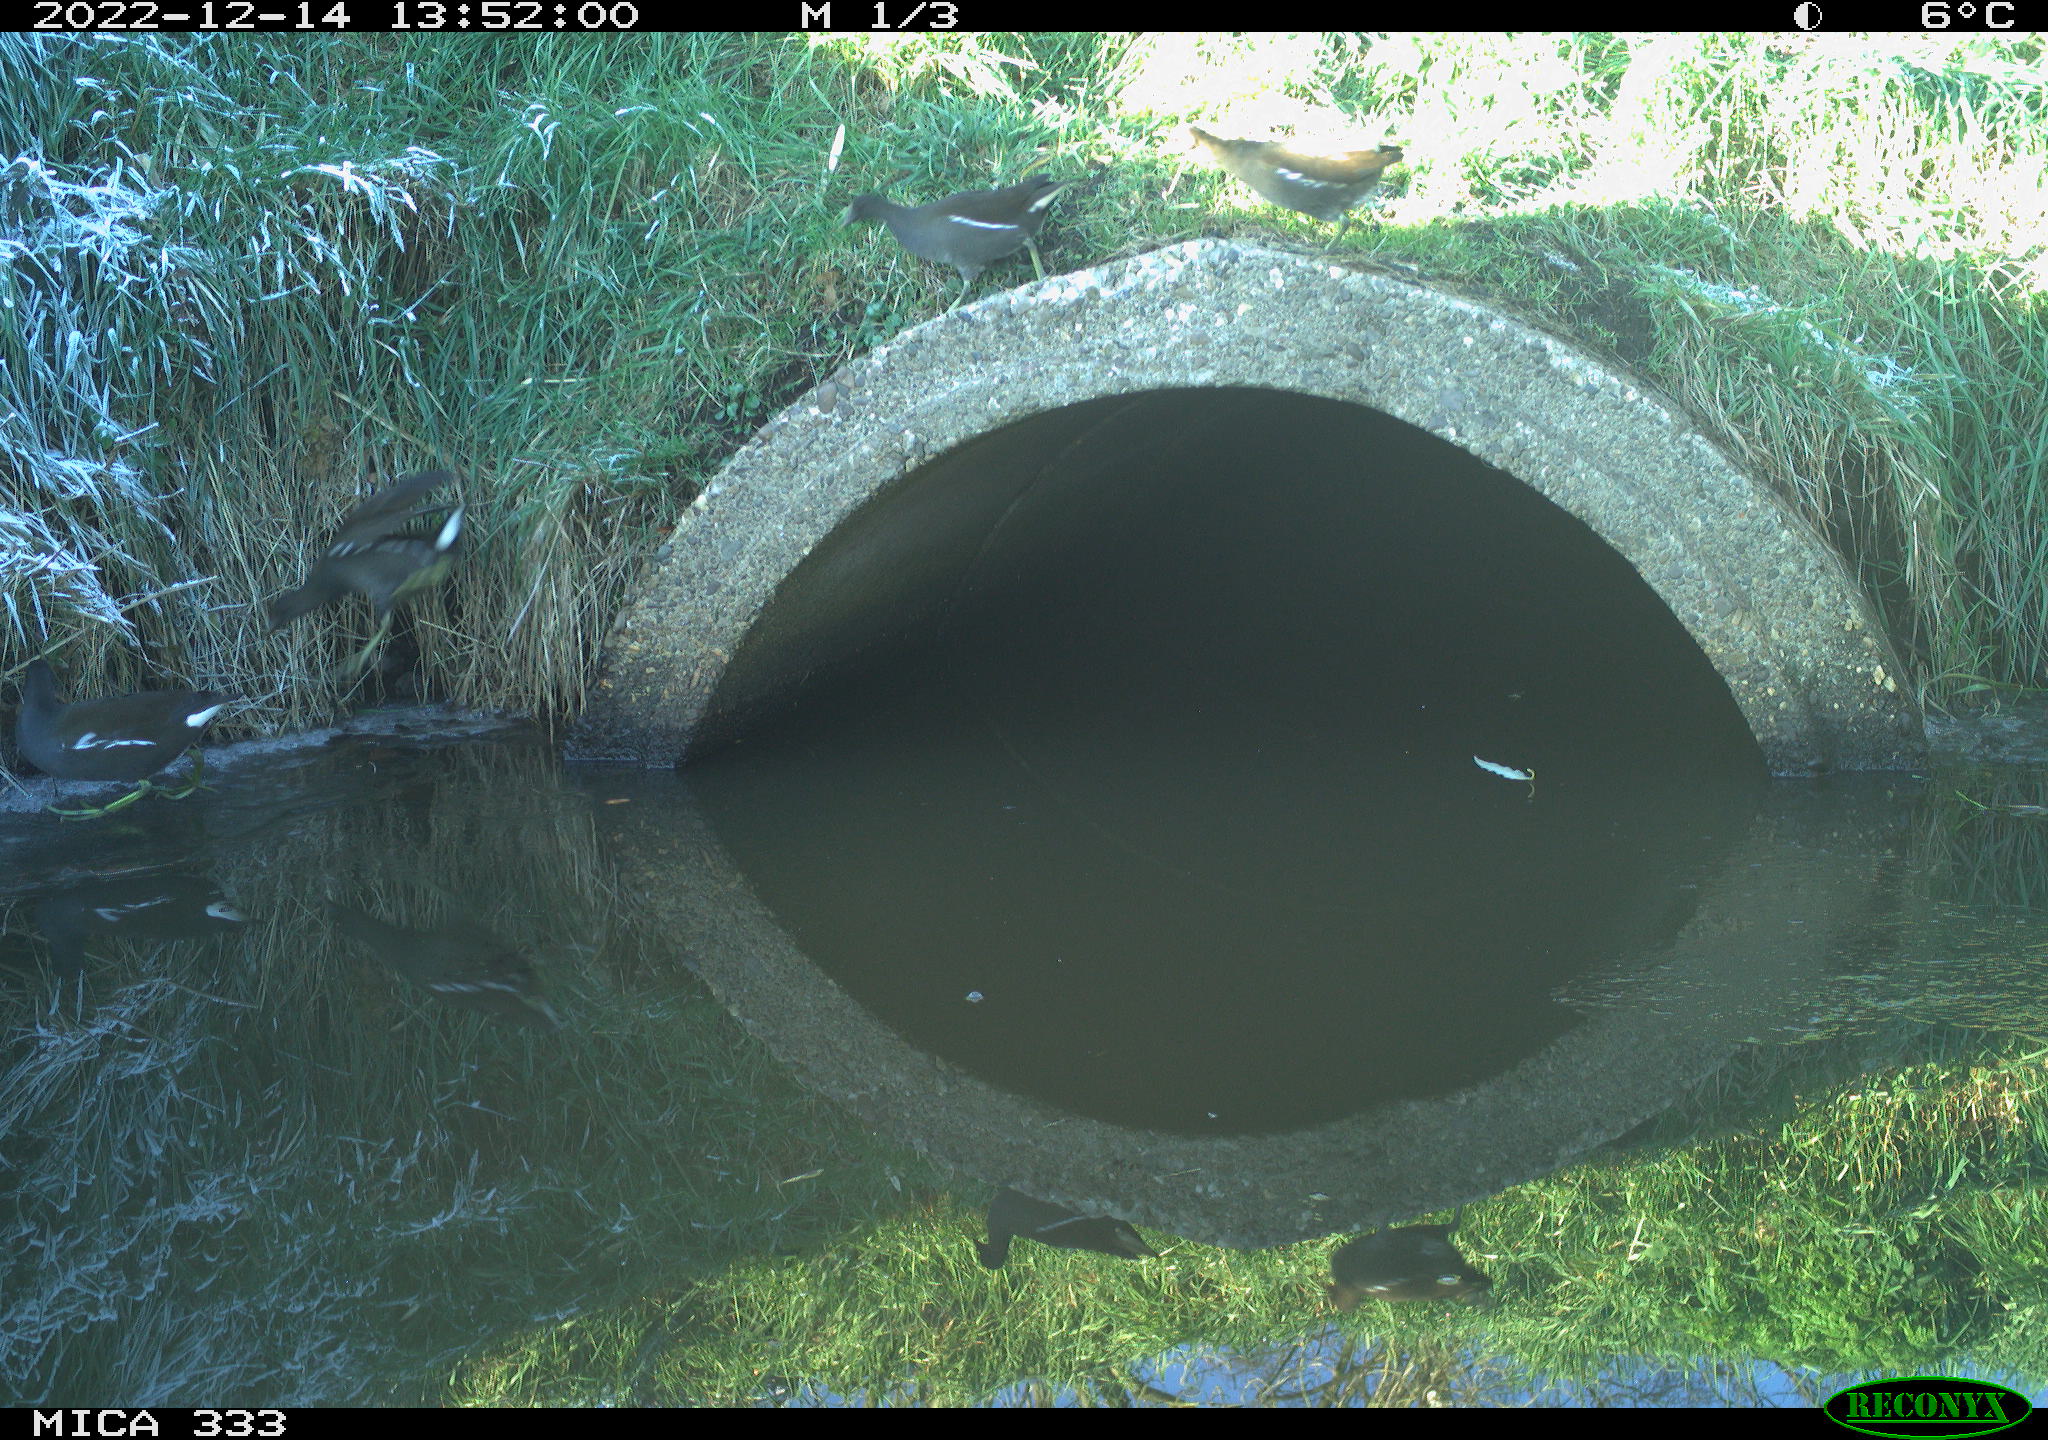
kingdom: Animalia
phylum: Chordata
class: Aves
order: Gruiformes
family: Rallidae
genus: Gallinula
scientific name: Gallinula chloropus
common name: Common moorhen
